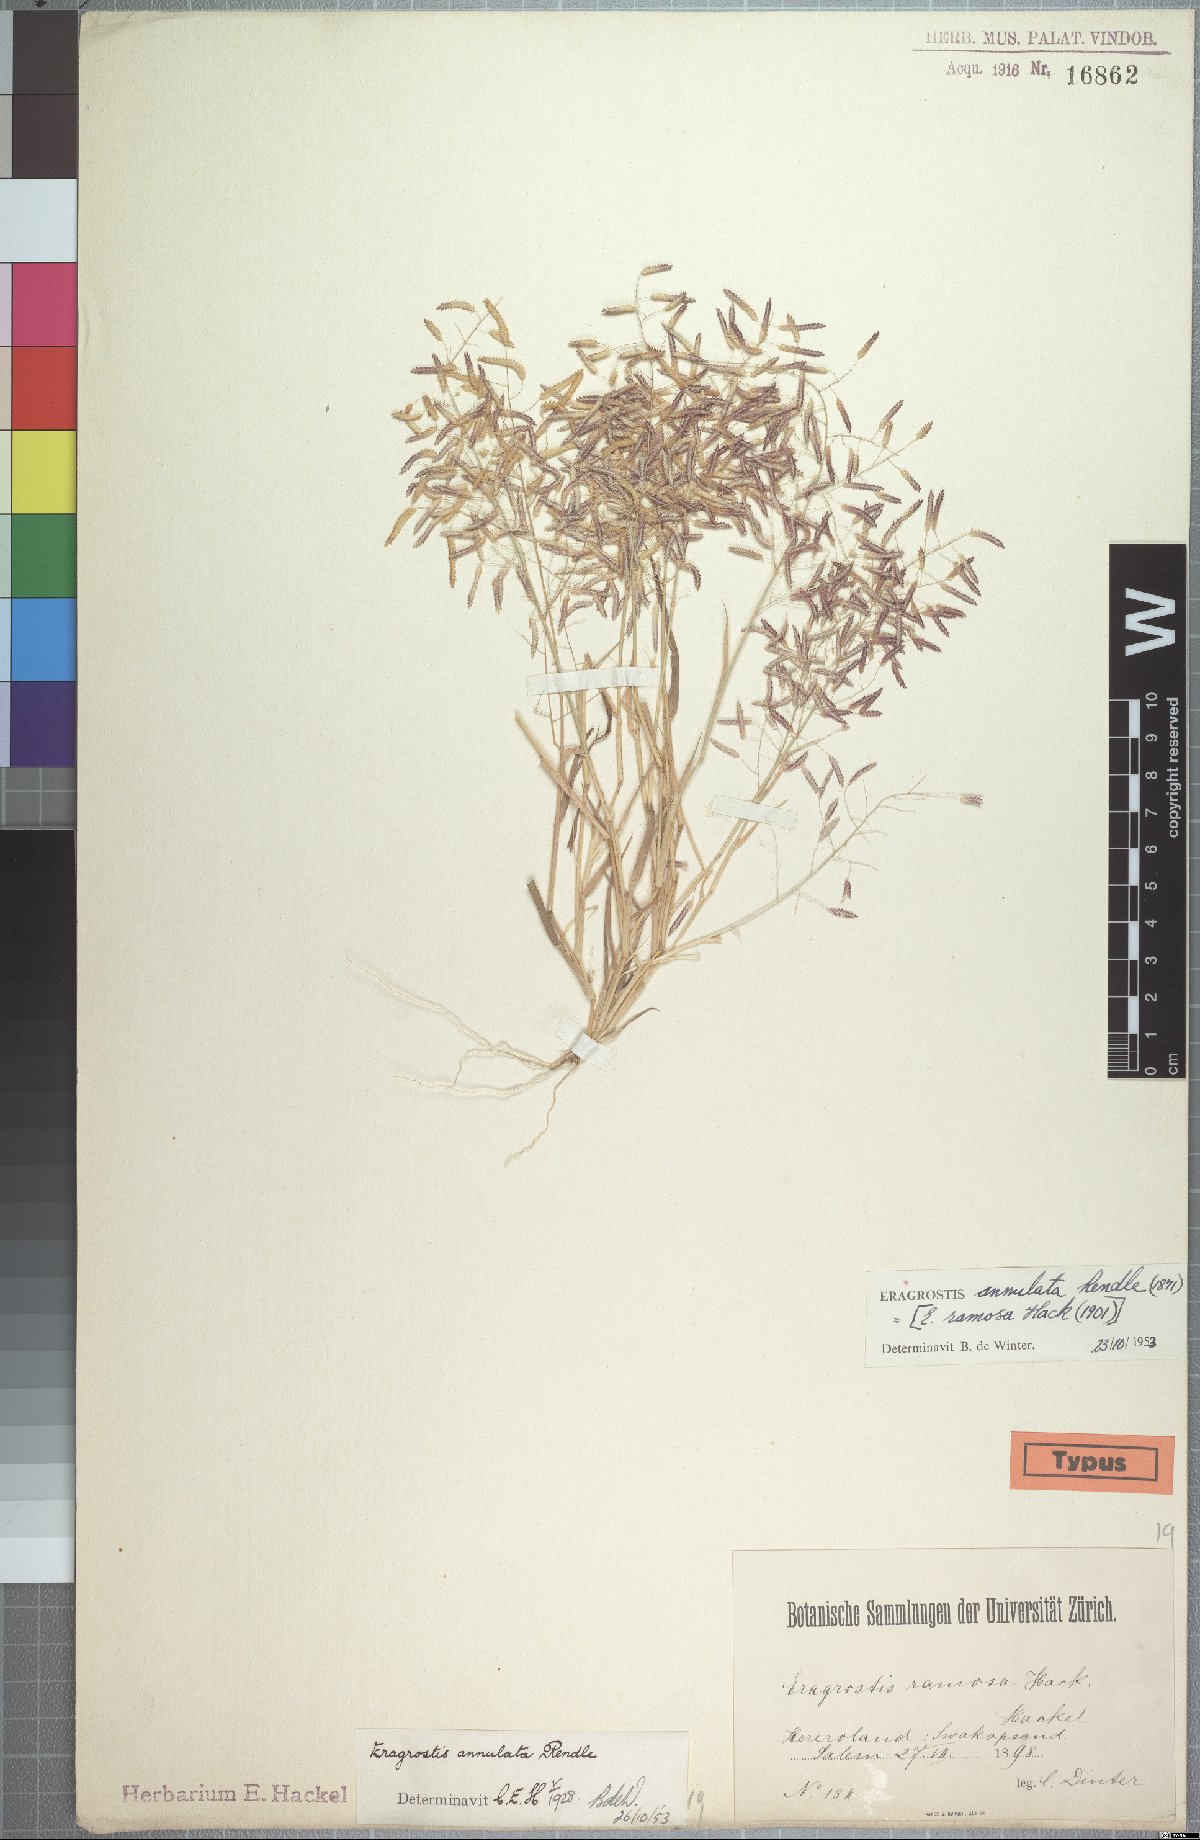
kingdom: Plantae
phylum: Tracheophyta
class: Liliopsida
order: Poales
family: Poaceae
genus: Eragrostis
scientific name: Eragrostis annulata
